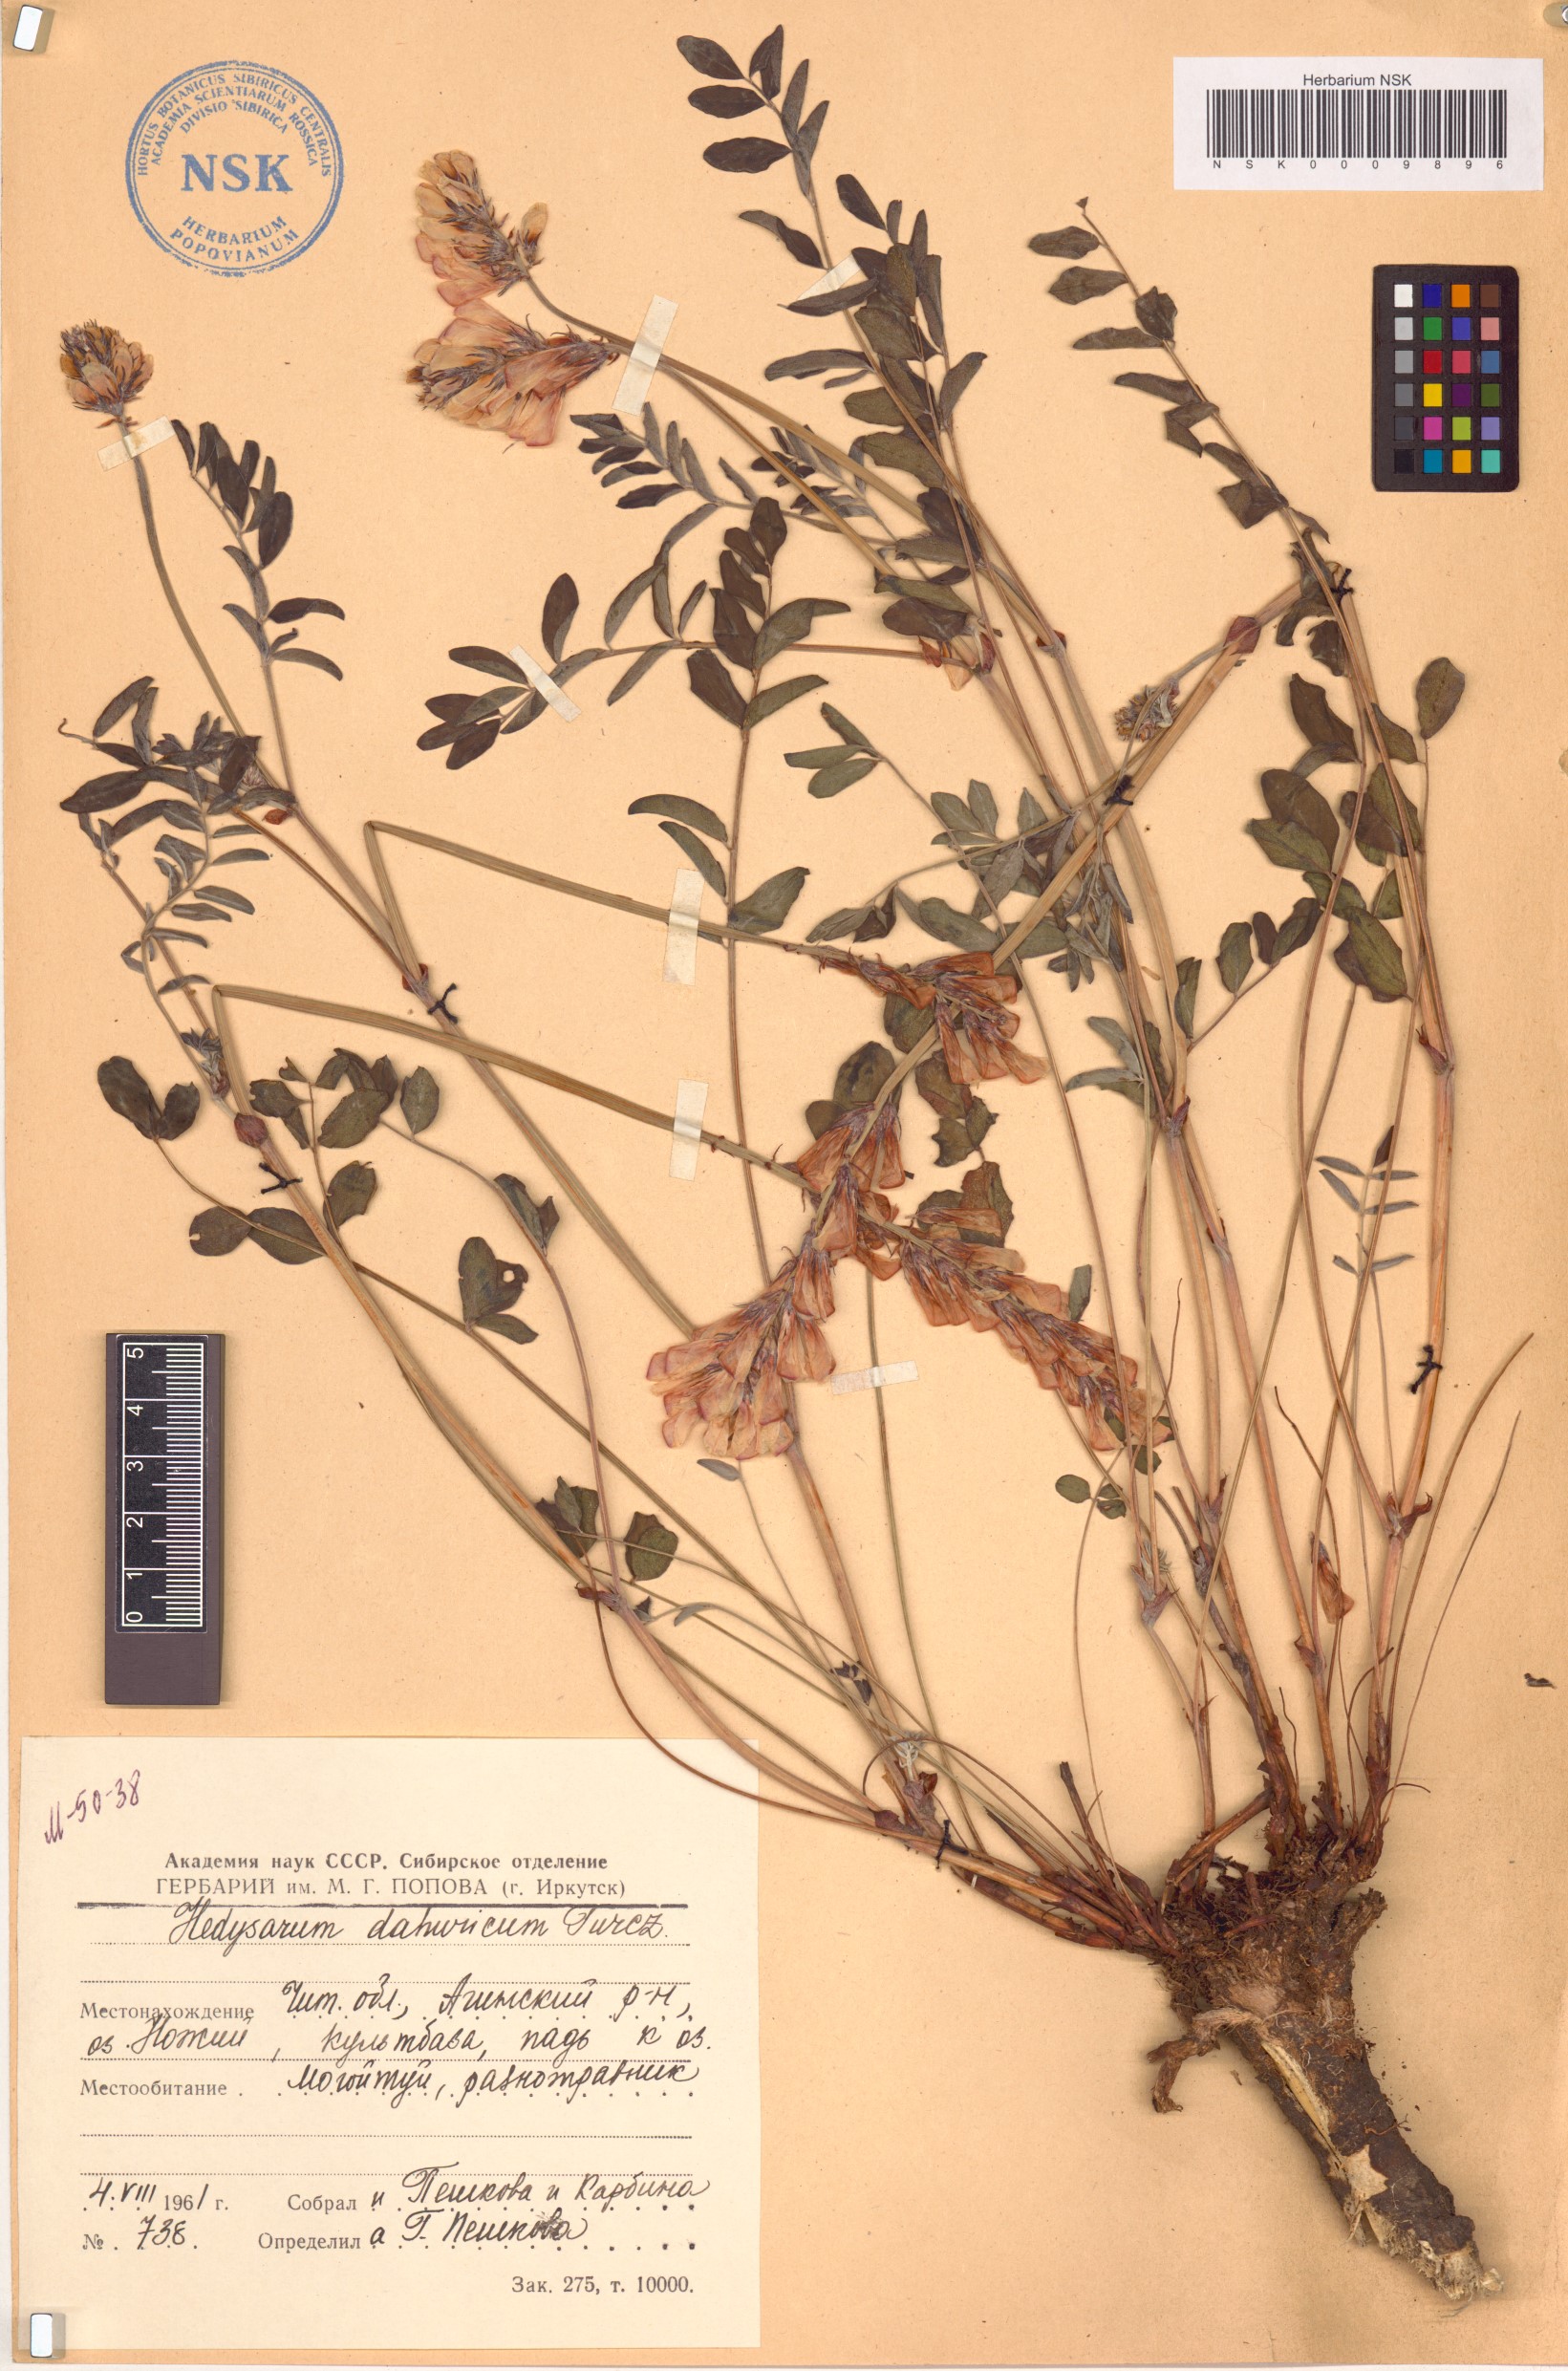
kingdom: Plantae
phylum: Tracheophyta
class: Magnoliopsida
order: Fabales
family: Fabaceae
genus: Hedysarum
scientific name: Hedysarum dahuricum
